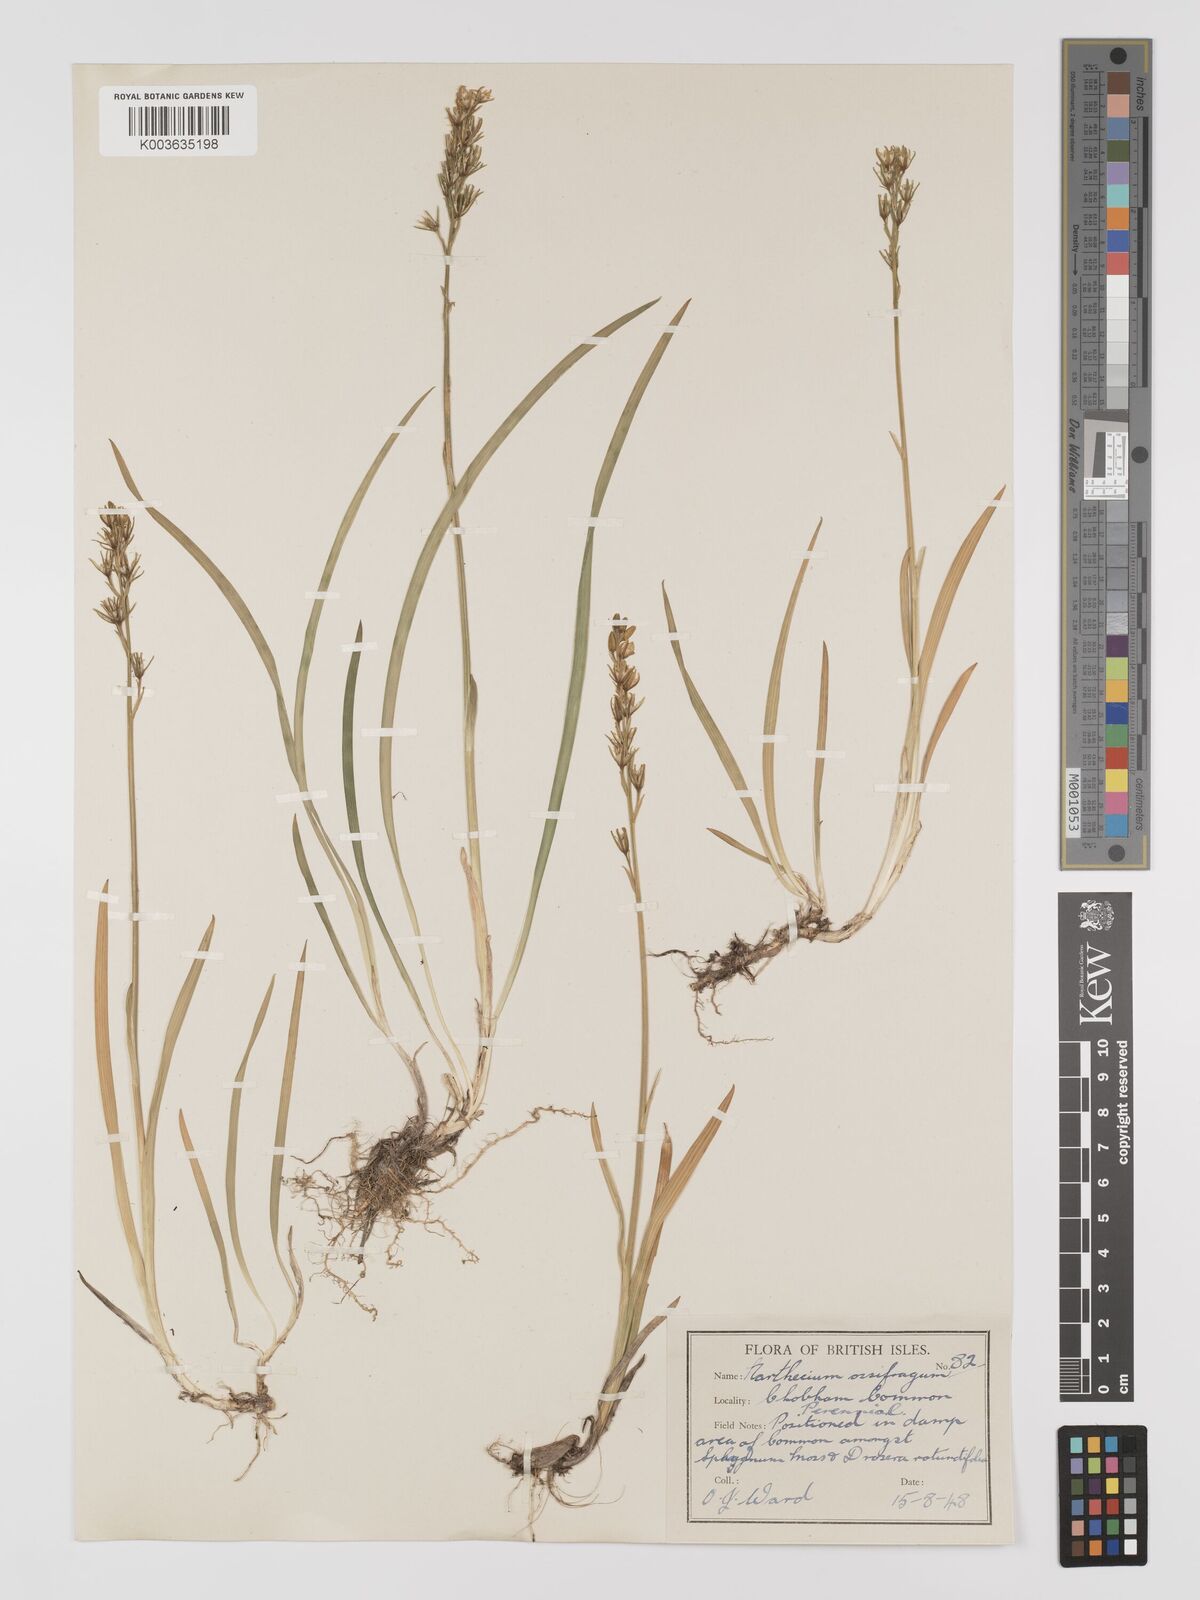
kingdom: Plantae
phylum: Tracheophyta
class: Liliopsida
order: Dioscoreales
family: Nartheciaceae
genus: Narthecium
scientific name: Narthecium
